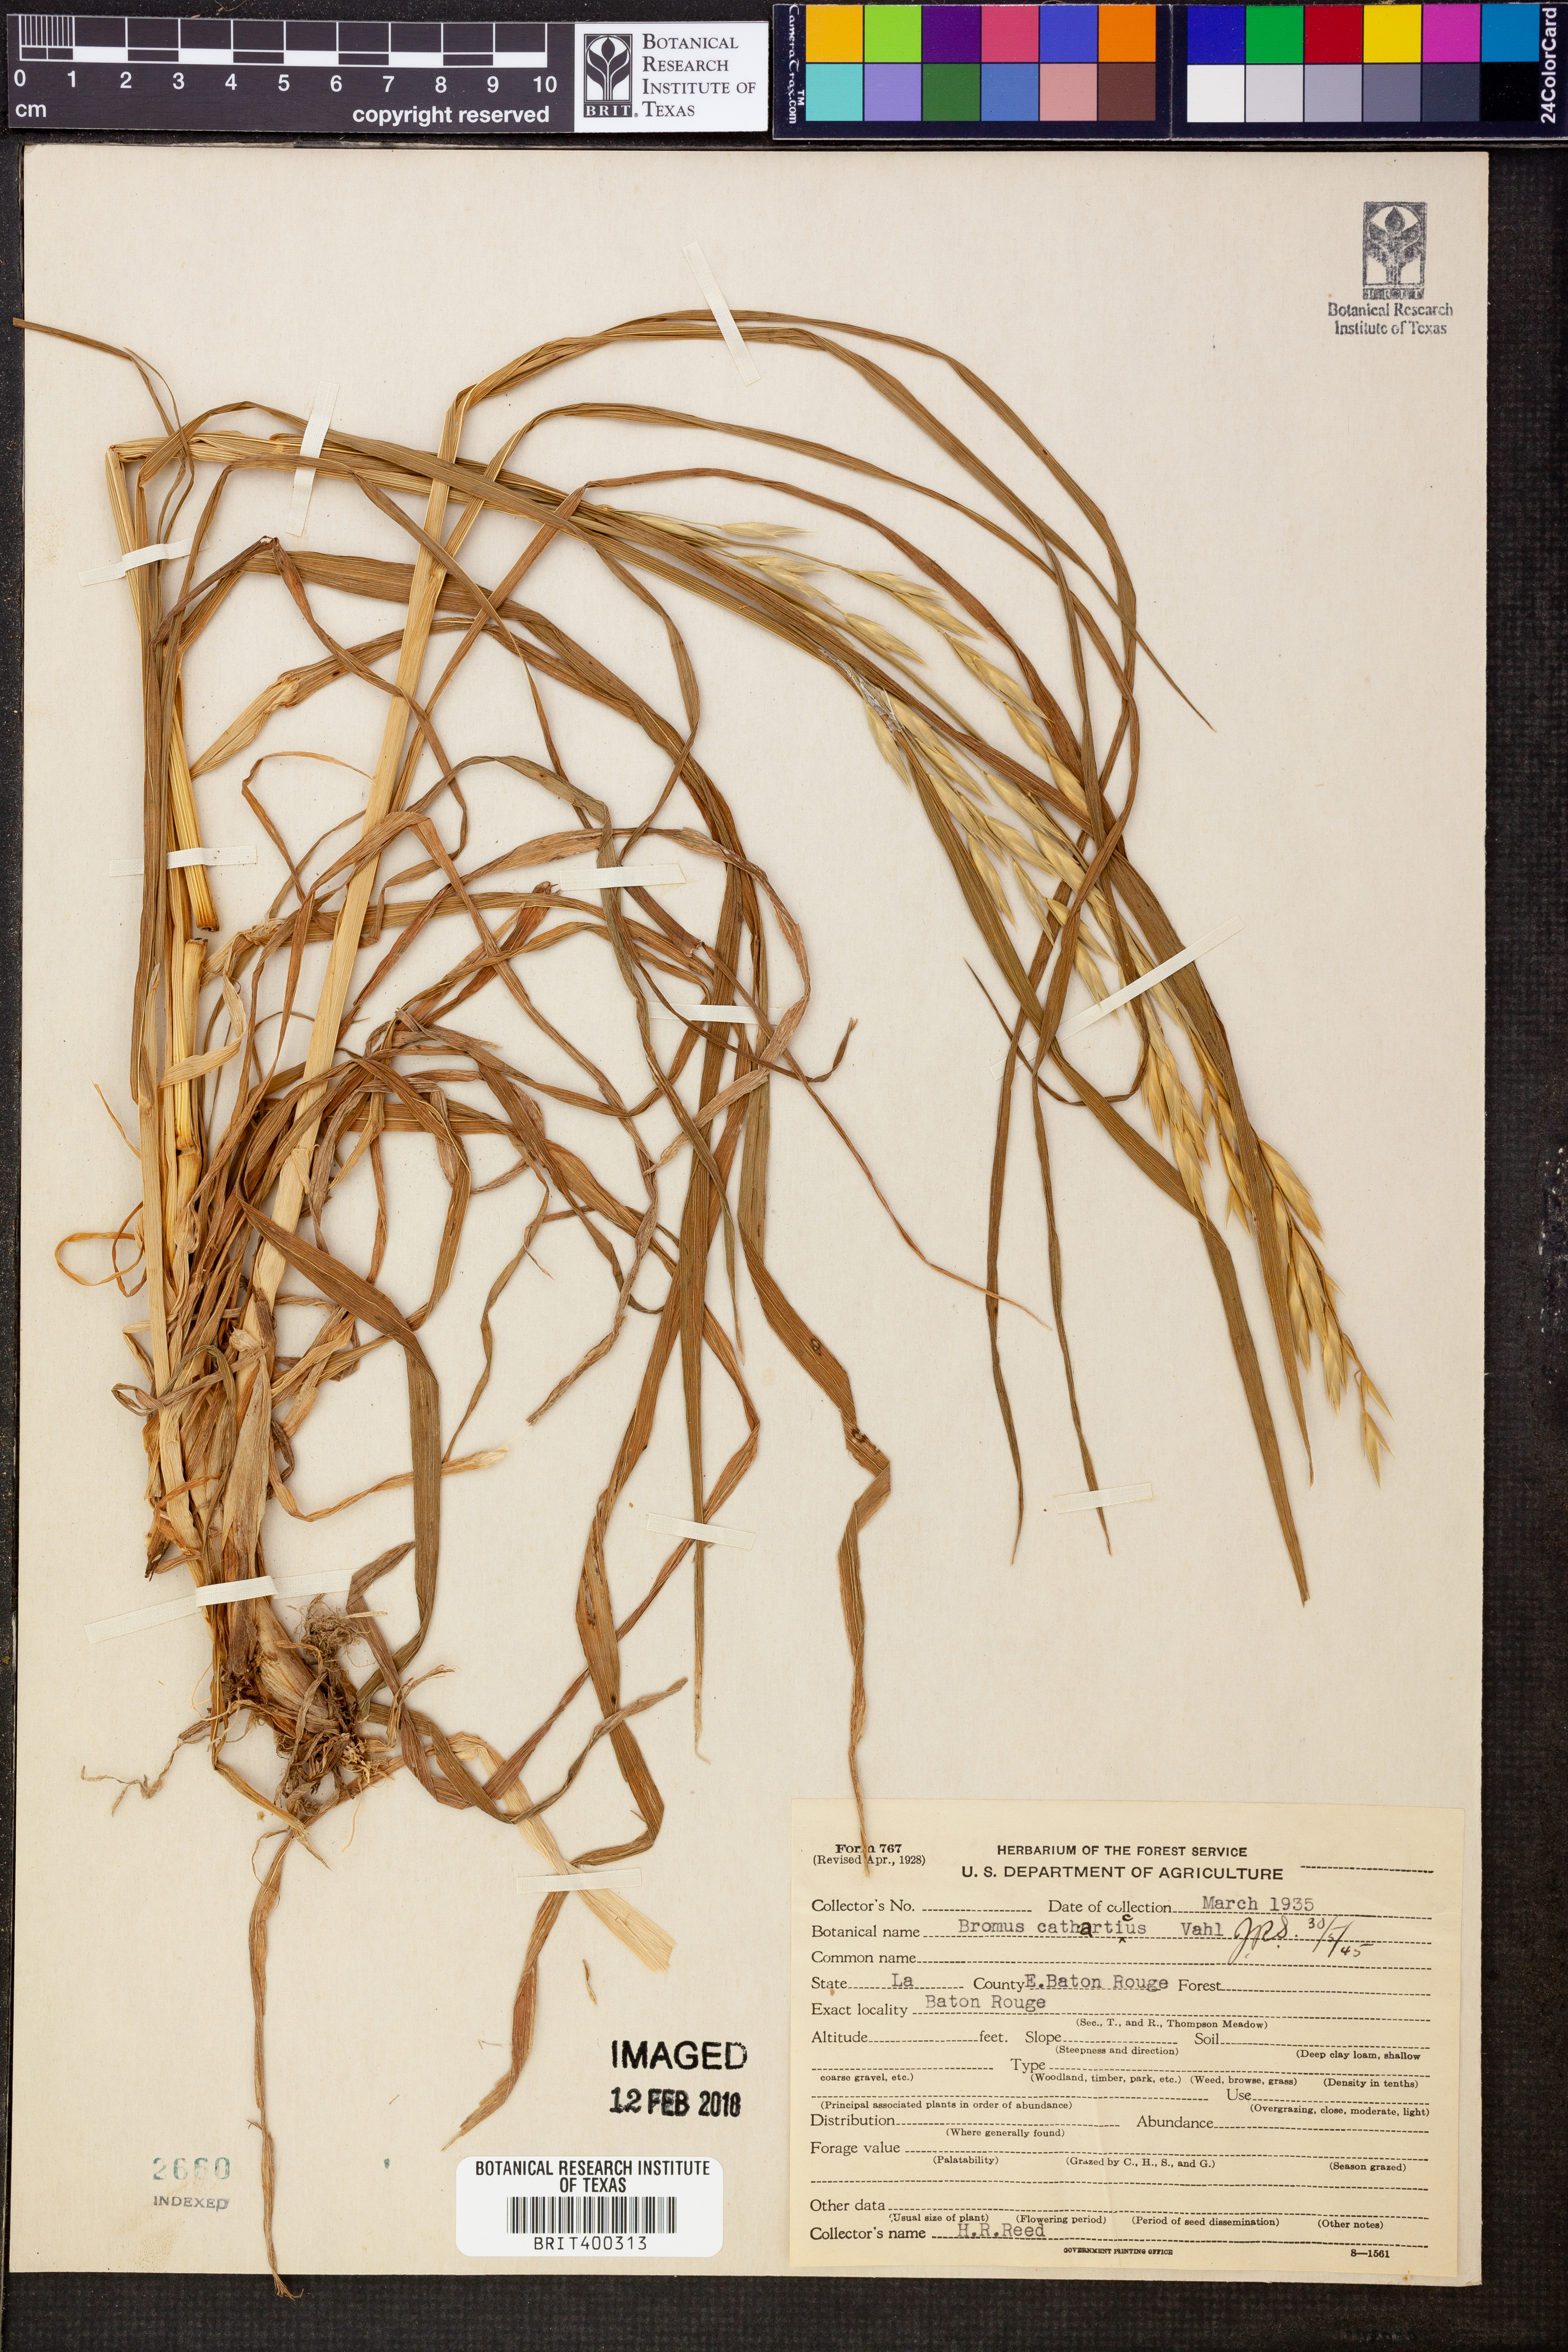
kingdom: Plantae
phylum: Tracheophyta
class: Liliopsida
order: Poales
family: Poaceae
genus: Bromus
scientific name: Bromus catharticus
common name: Rescuegrass
